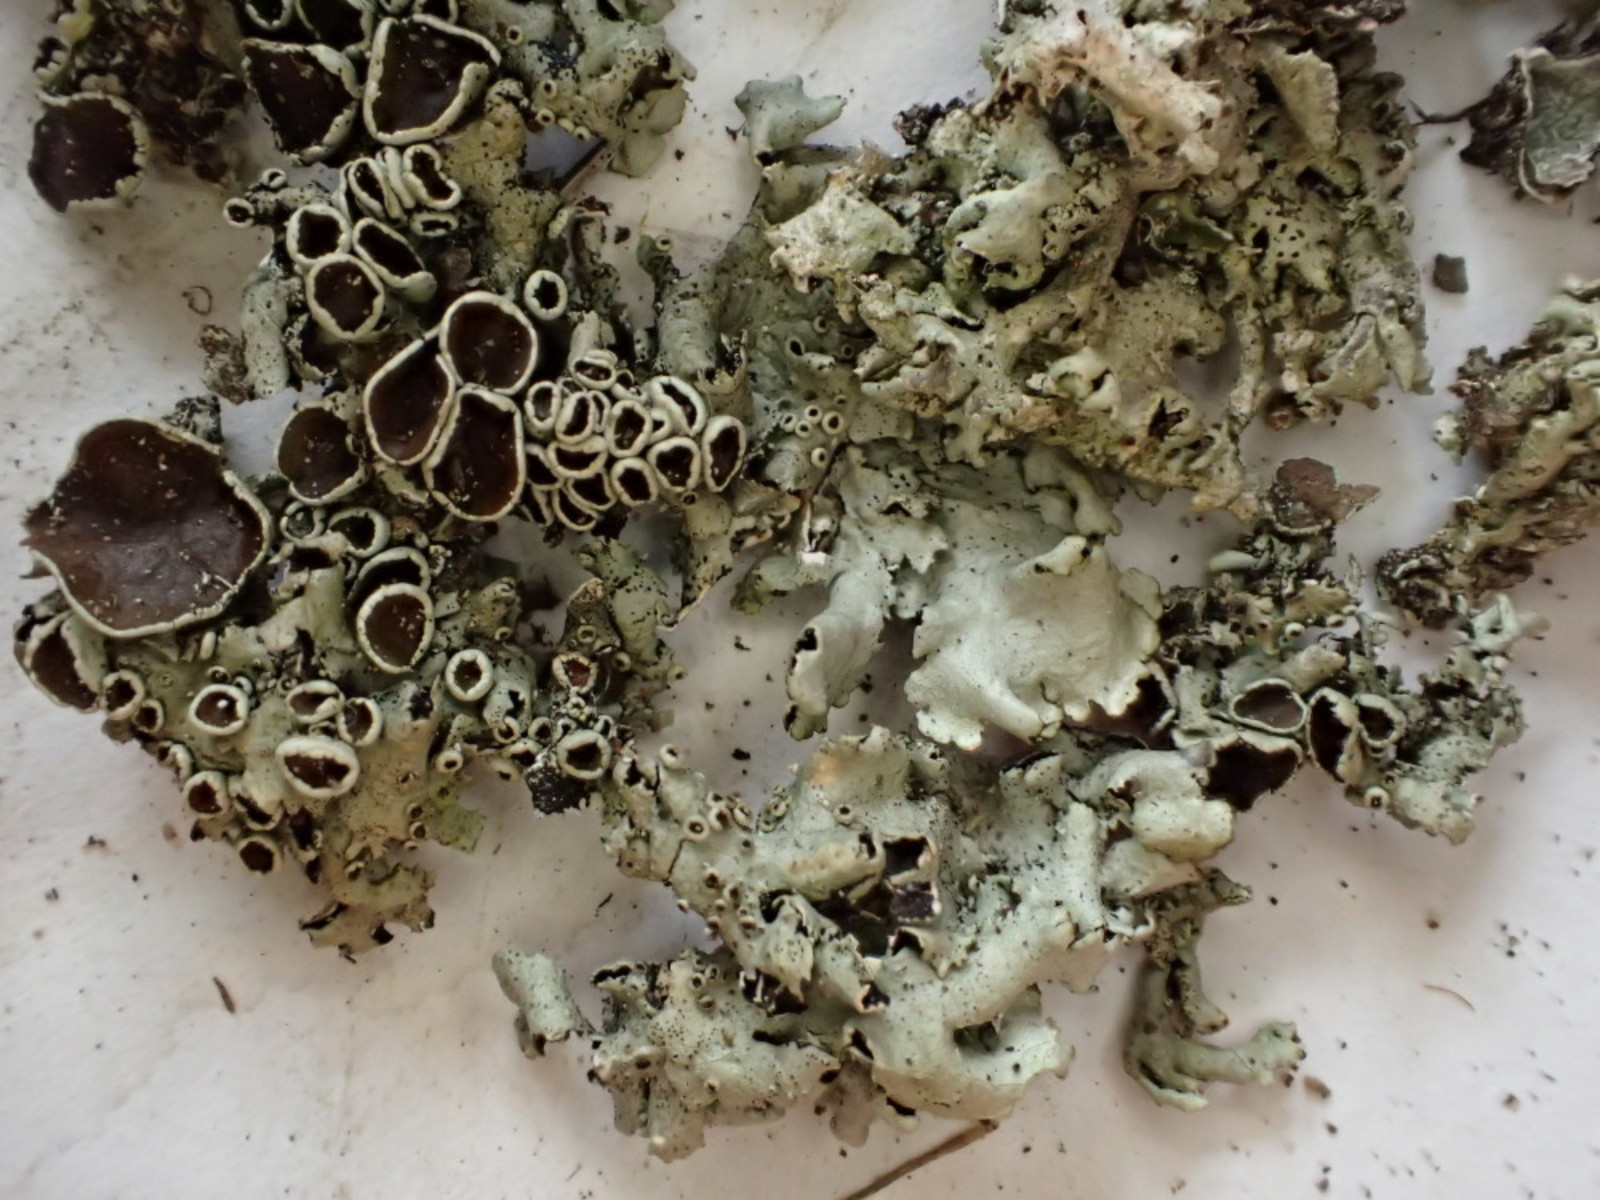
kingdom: Fungi
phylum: Ascomycota
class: Lecanoromycetes
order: Lecanorales
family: Parmeliaceae
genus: Xanthoparmelia
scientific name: Xanthoparmelia stenophylla
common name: Shingled rock shield
